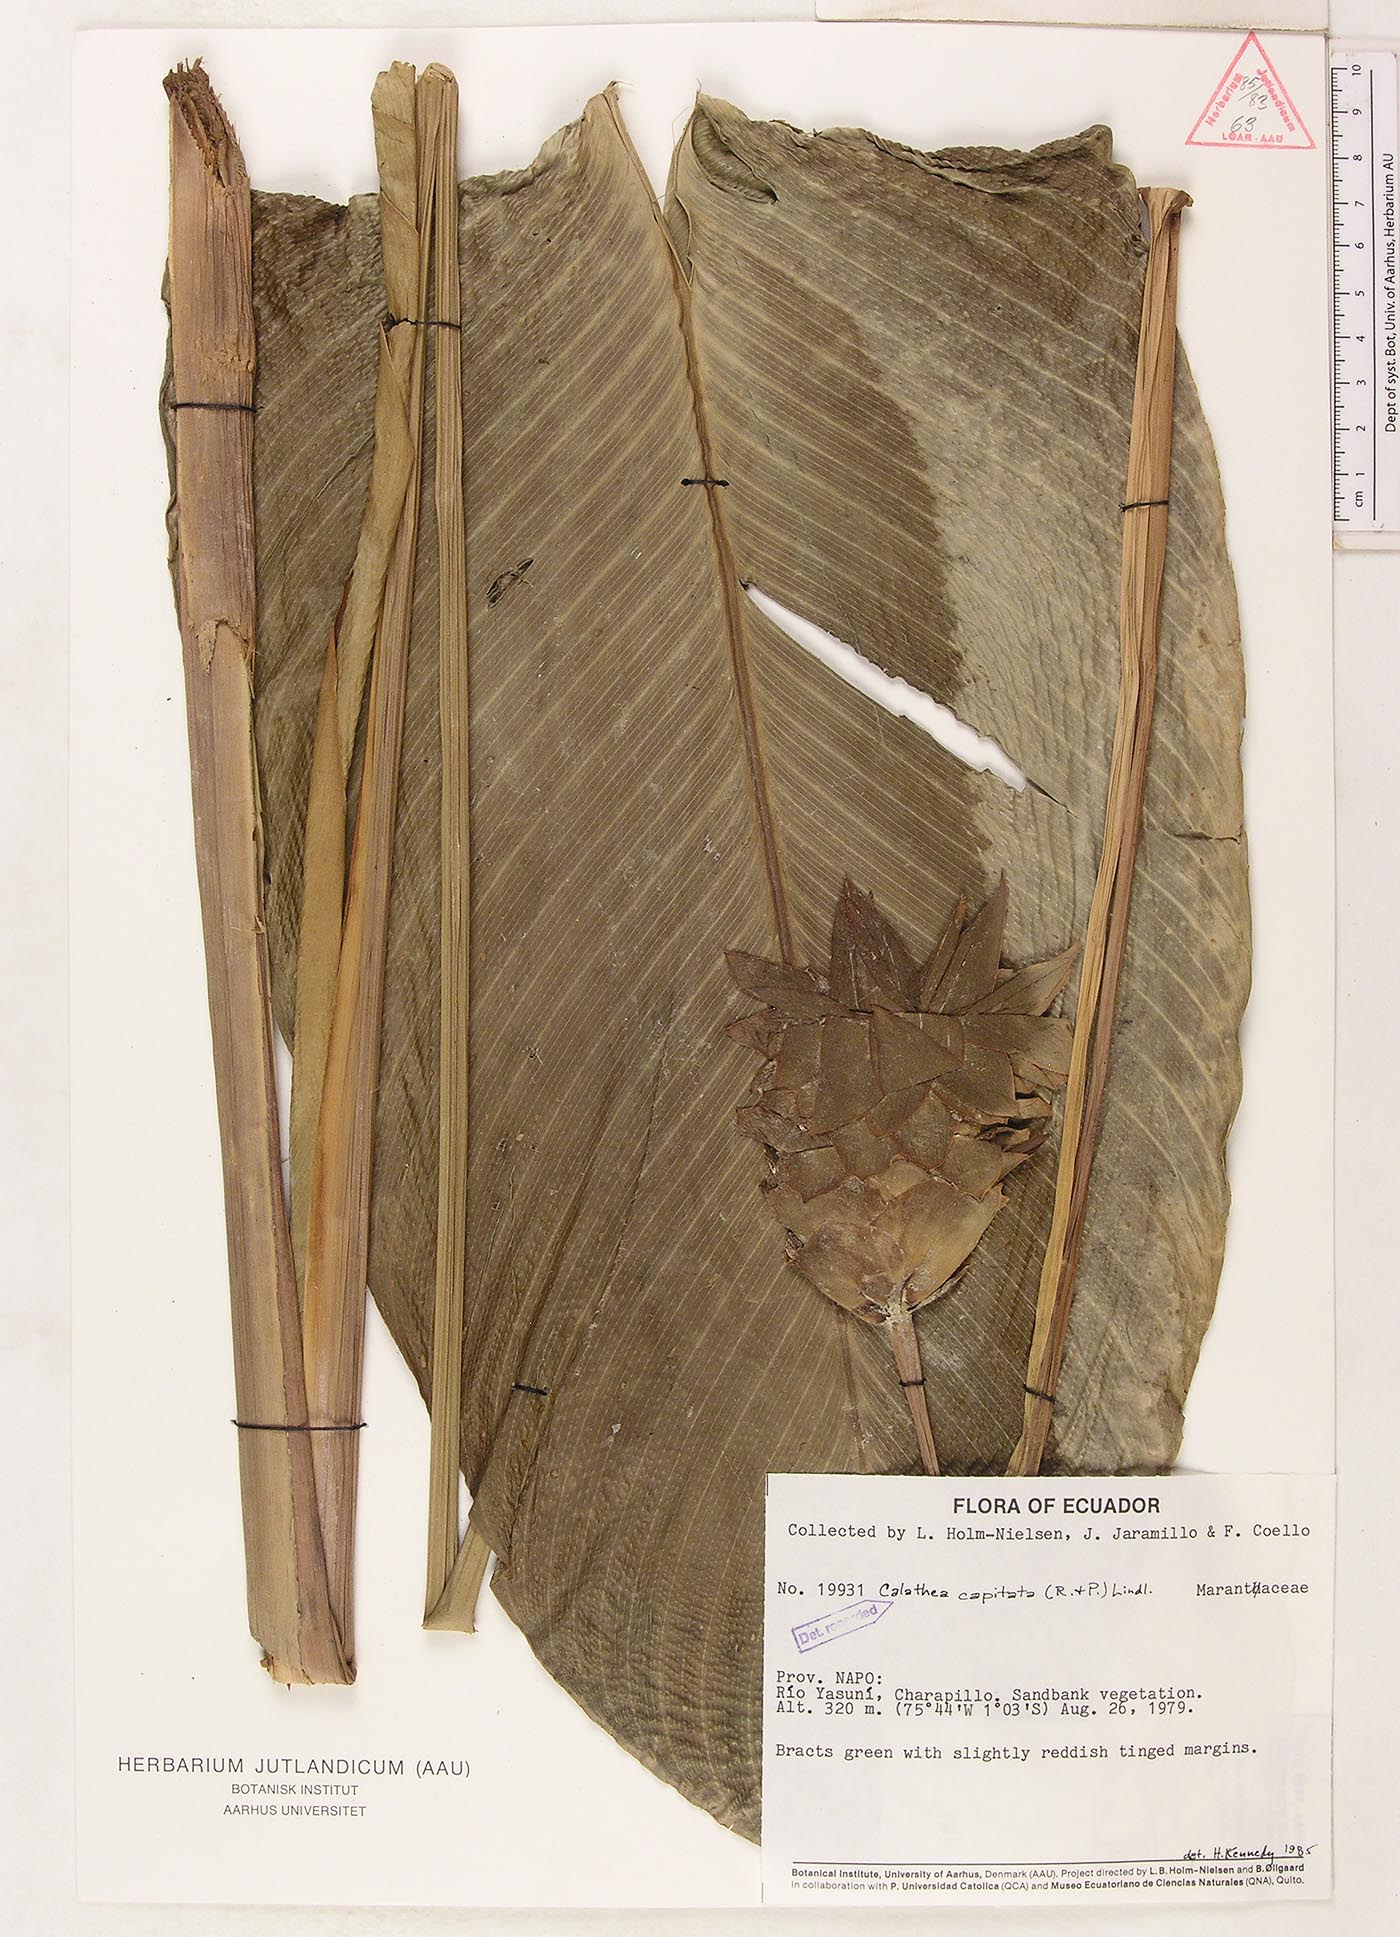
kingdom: Plantae
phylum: Tracheophyta
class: Liliopsida
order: Zingiberales
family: Marantaceae
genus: Goeppertia
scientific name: Goeppertia capitata
